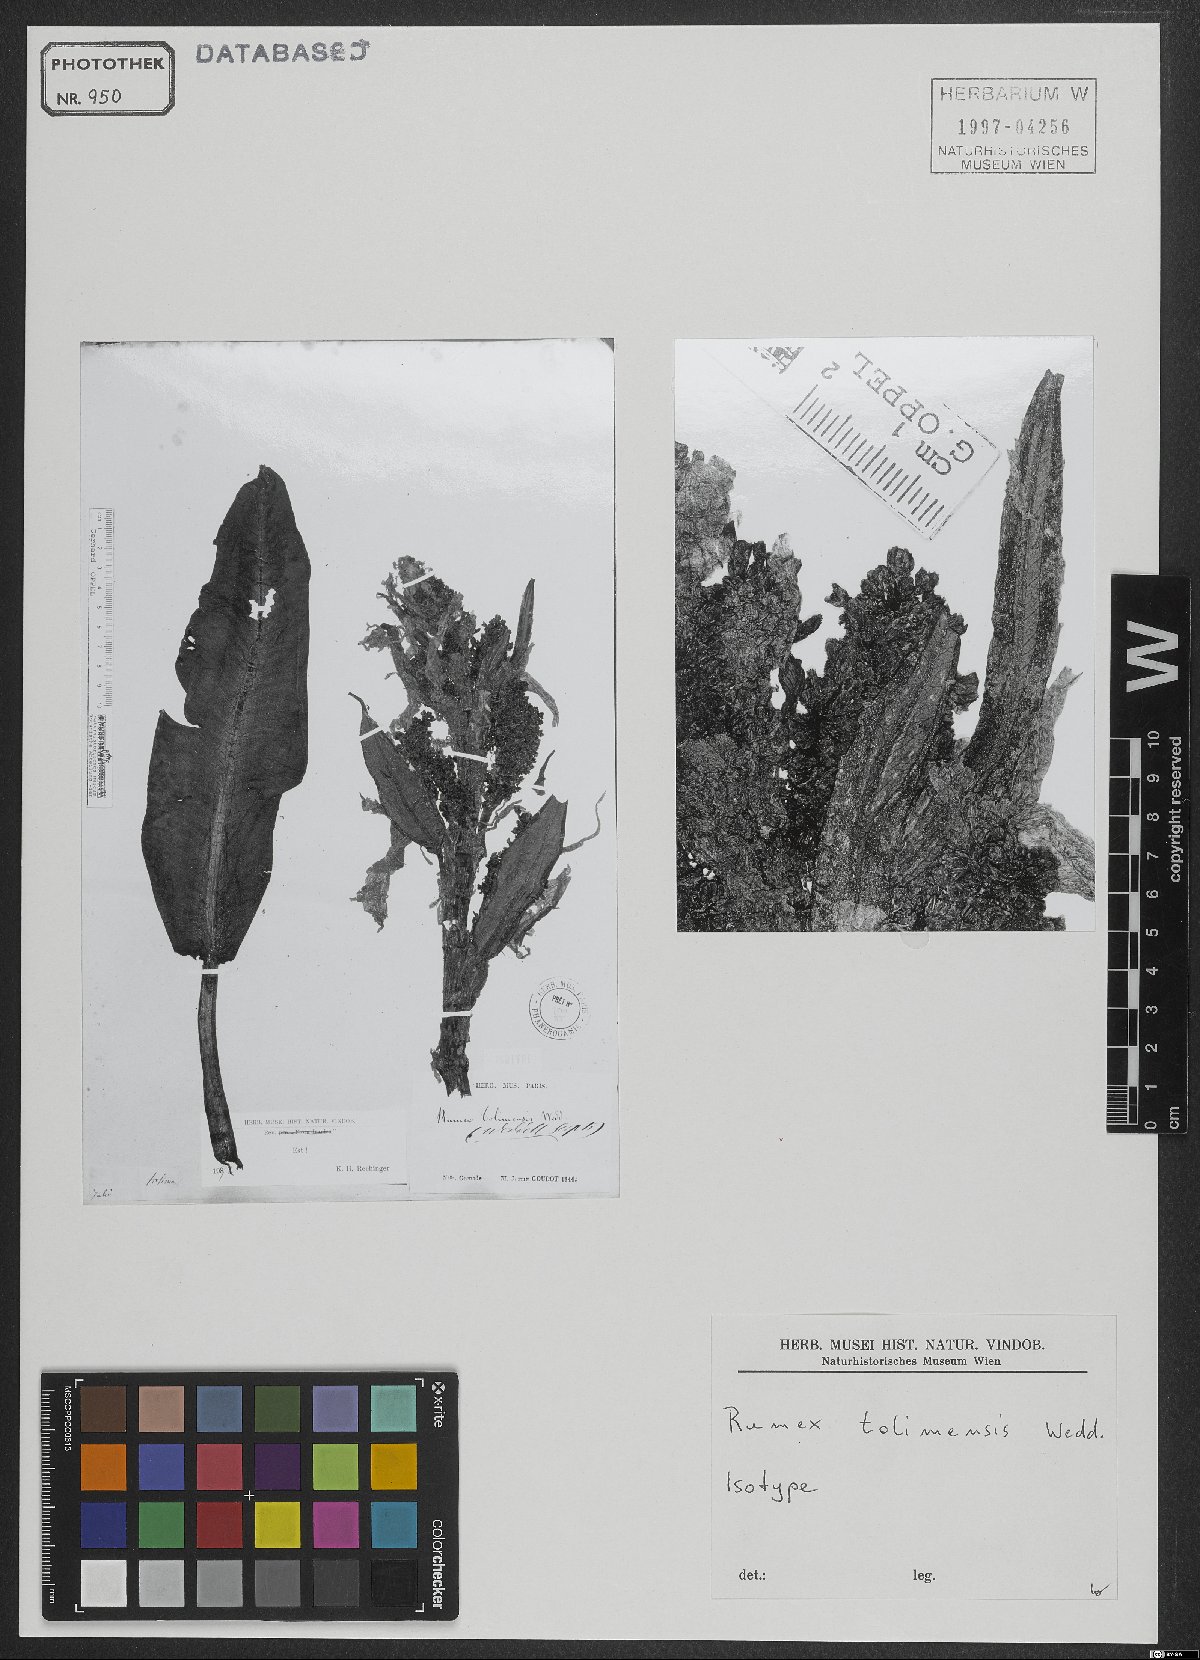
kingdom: Plantae
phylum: Tracheophyta
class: Magnoliopsida
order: Caryophyllales
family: Polygonaceae
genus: Rumex
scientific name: Rumex tolimensis
